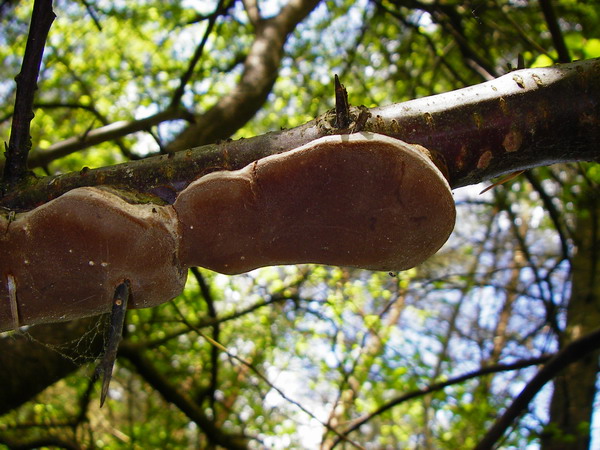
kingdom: Fungi
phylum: Basidiomycota
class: Agaricomycetes
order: Hymenochaetales
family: Hymenochaetaceae
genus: Phellinus
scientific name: Phellinus pomaceus
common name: blomme-ildporesvamp
